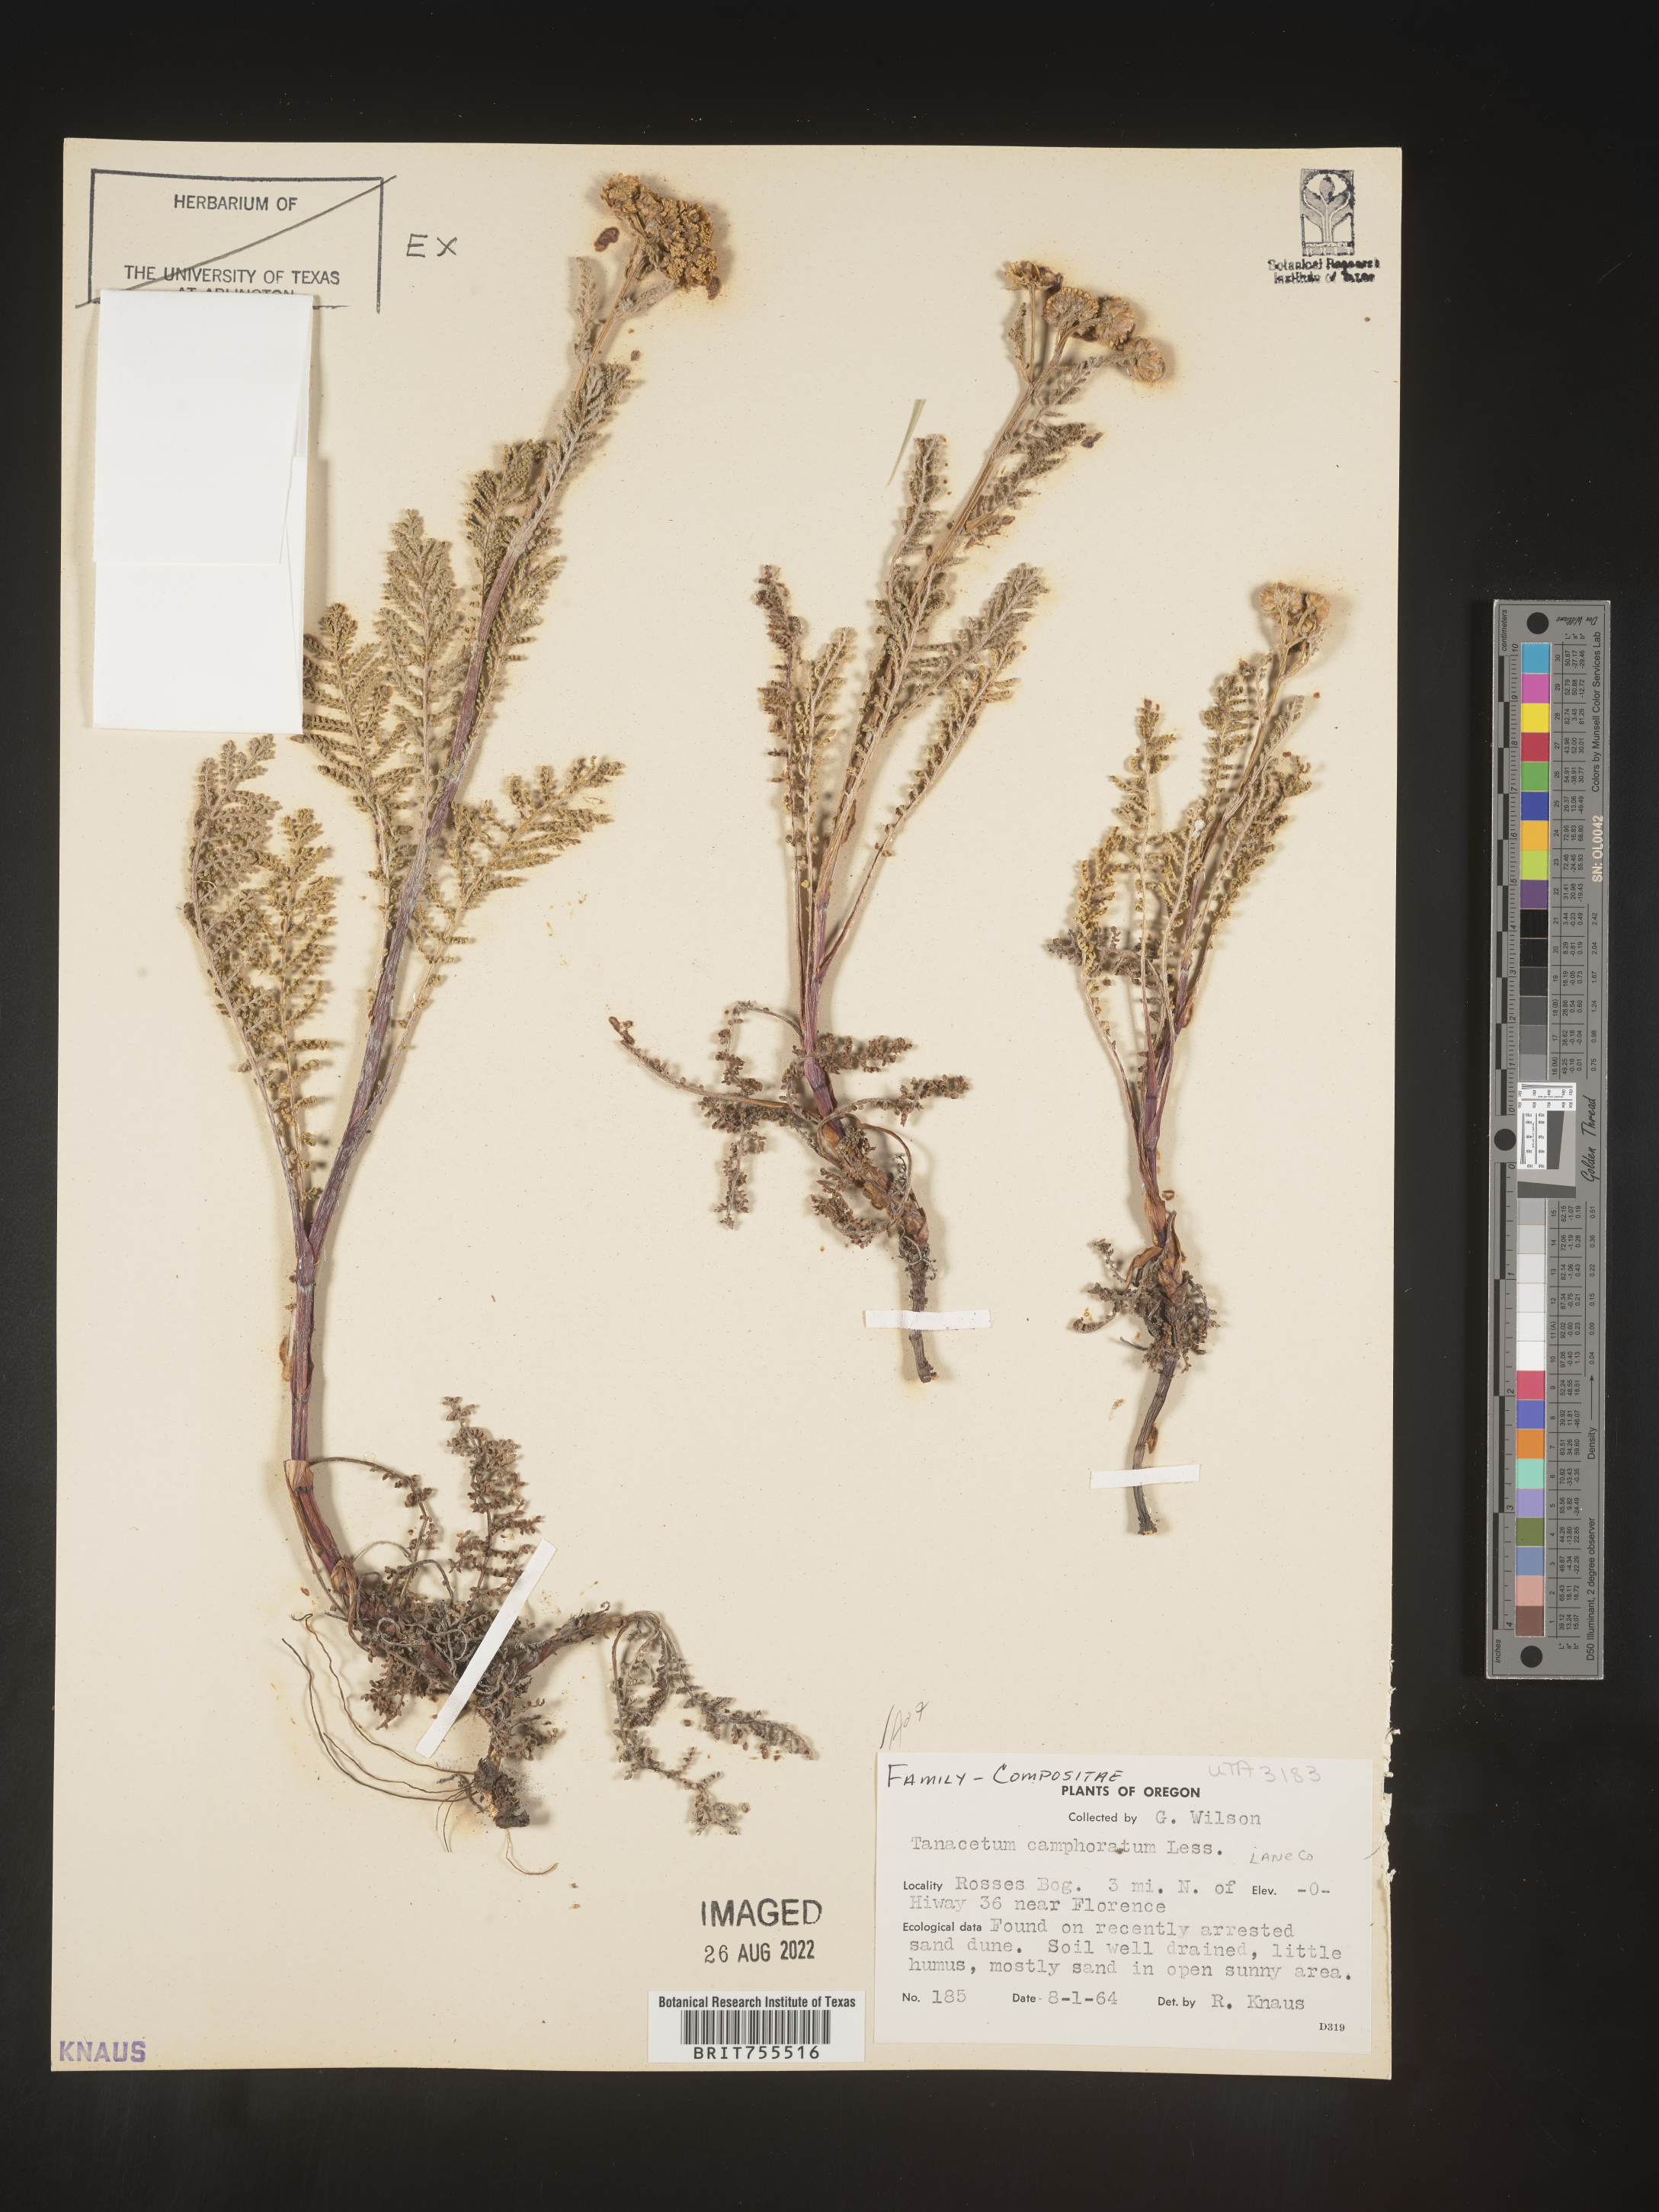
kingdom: Plantae
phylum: Tracheophyta
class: Magnoliopsida
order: Asterales
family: Asteraceae
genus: Tanacetum
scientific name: Tanacetum bipinnatum
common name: Dwarf tansy
